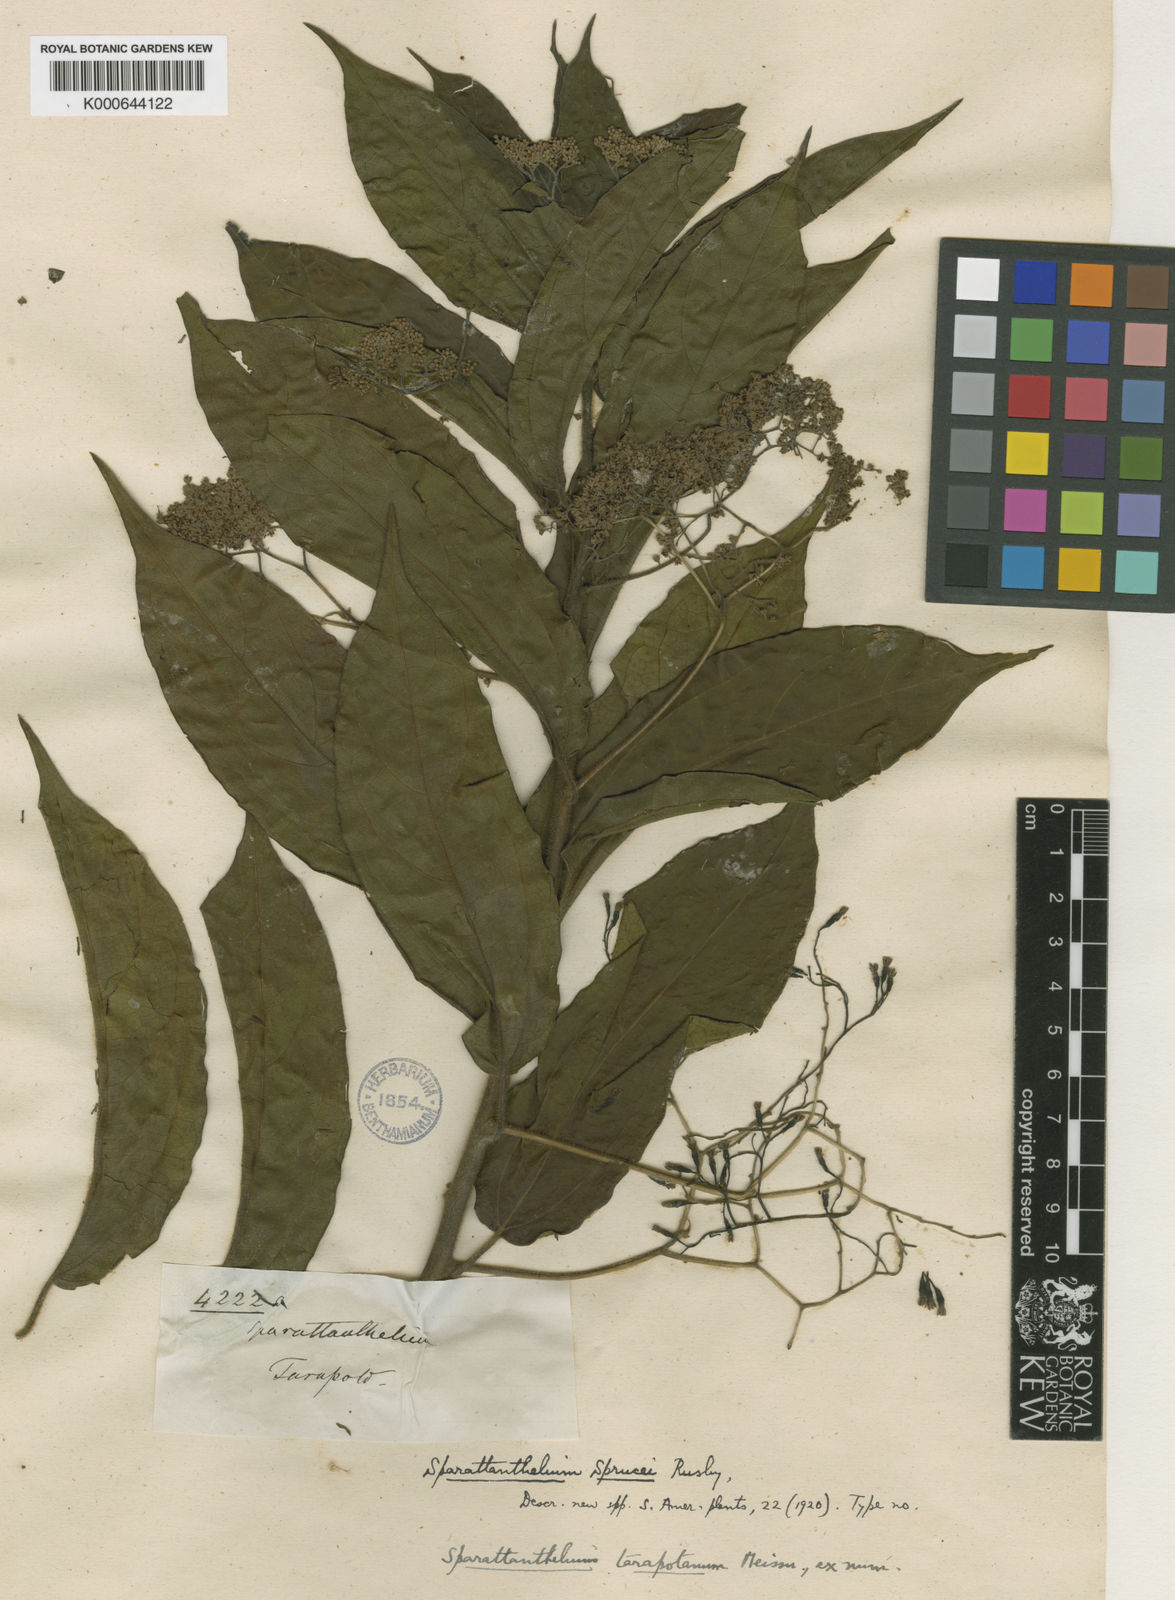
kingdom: Plantae
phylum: Tracheophyta
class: Magnoliopsida
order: Laurales
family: Hernandiaceae
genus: Sparattanthelium
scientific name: Sparattanthelium tarapotanum
